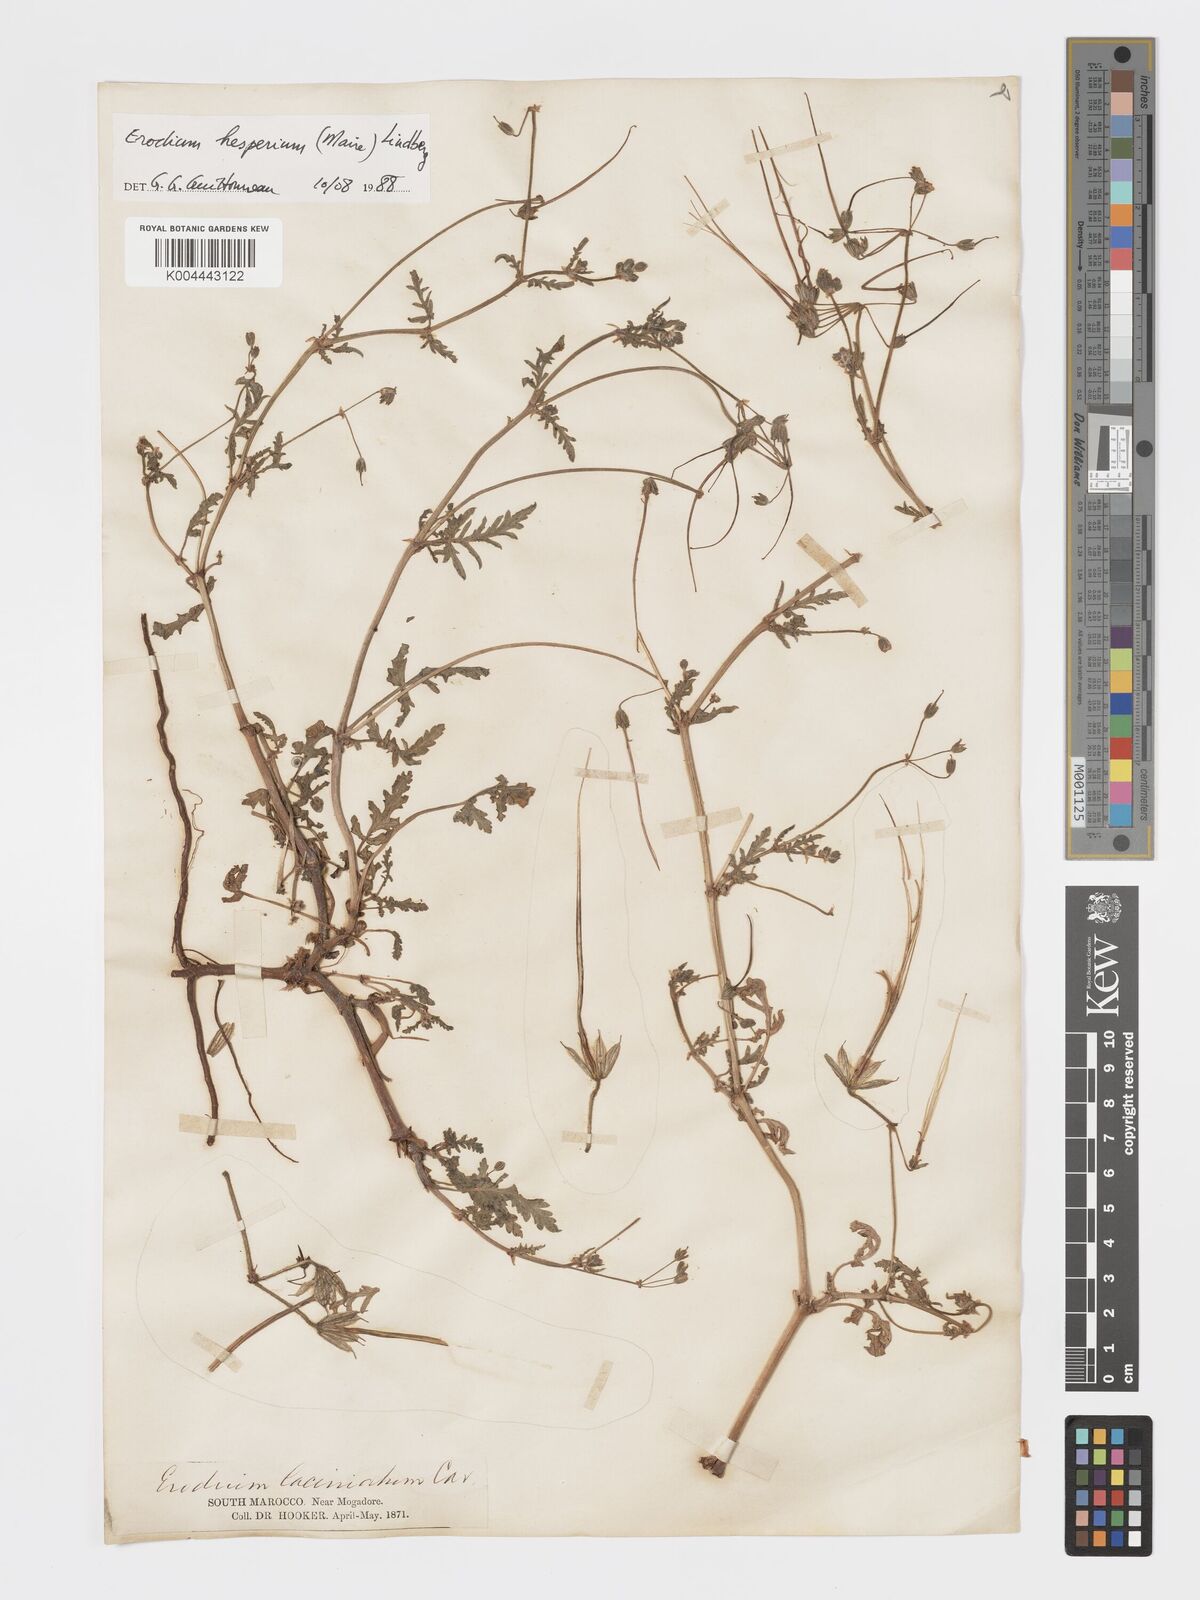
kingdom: Plantae
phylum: Tracheophyta
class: Magnoliopsida
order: Geraniales
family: Geraniaceae
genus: Erodium
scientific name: Erodium hesperium
